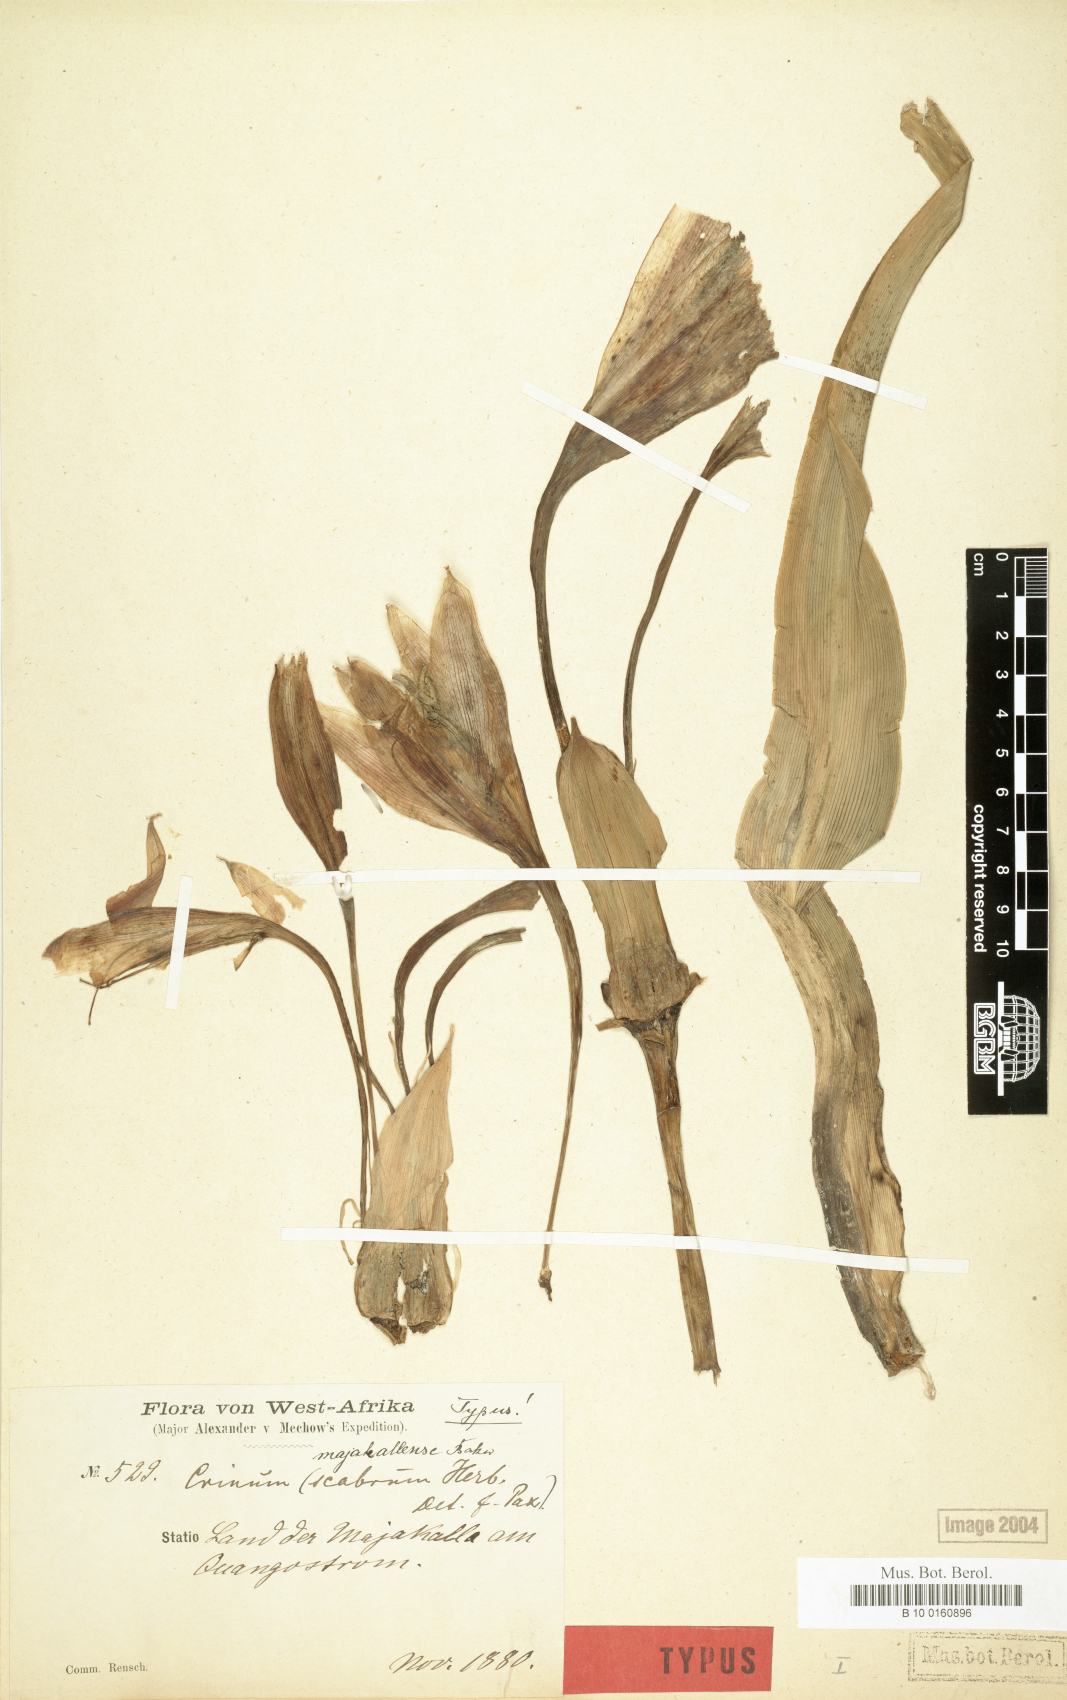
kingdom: Plantae
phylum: Tracheophyta
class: Liliopsida
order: Asparagales
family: Amaryllidaceae
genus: Crinum
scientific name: Crinum majakallense
